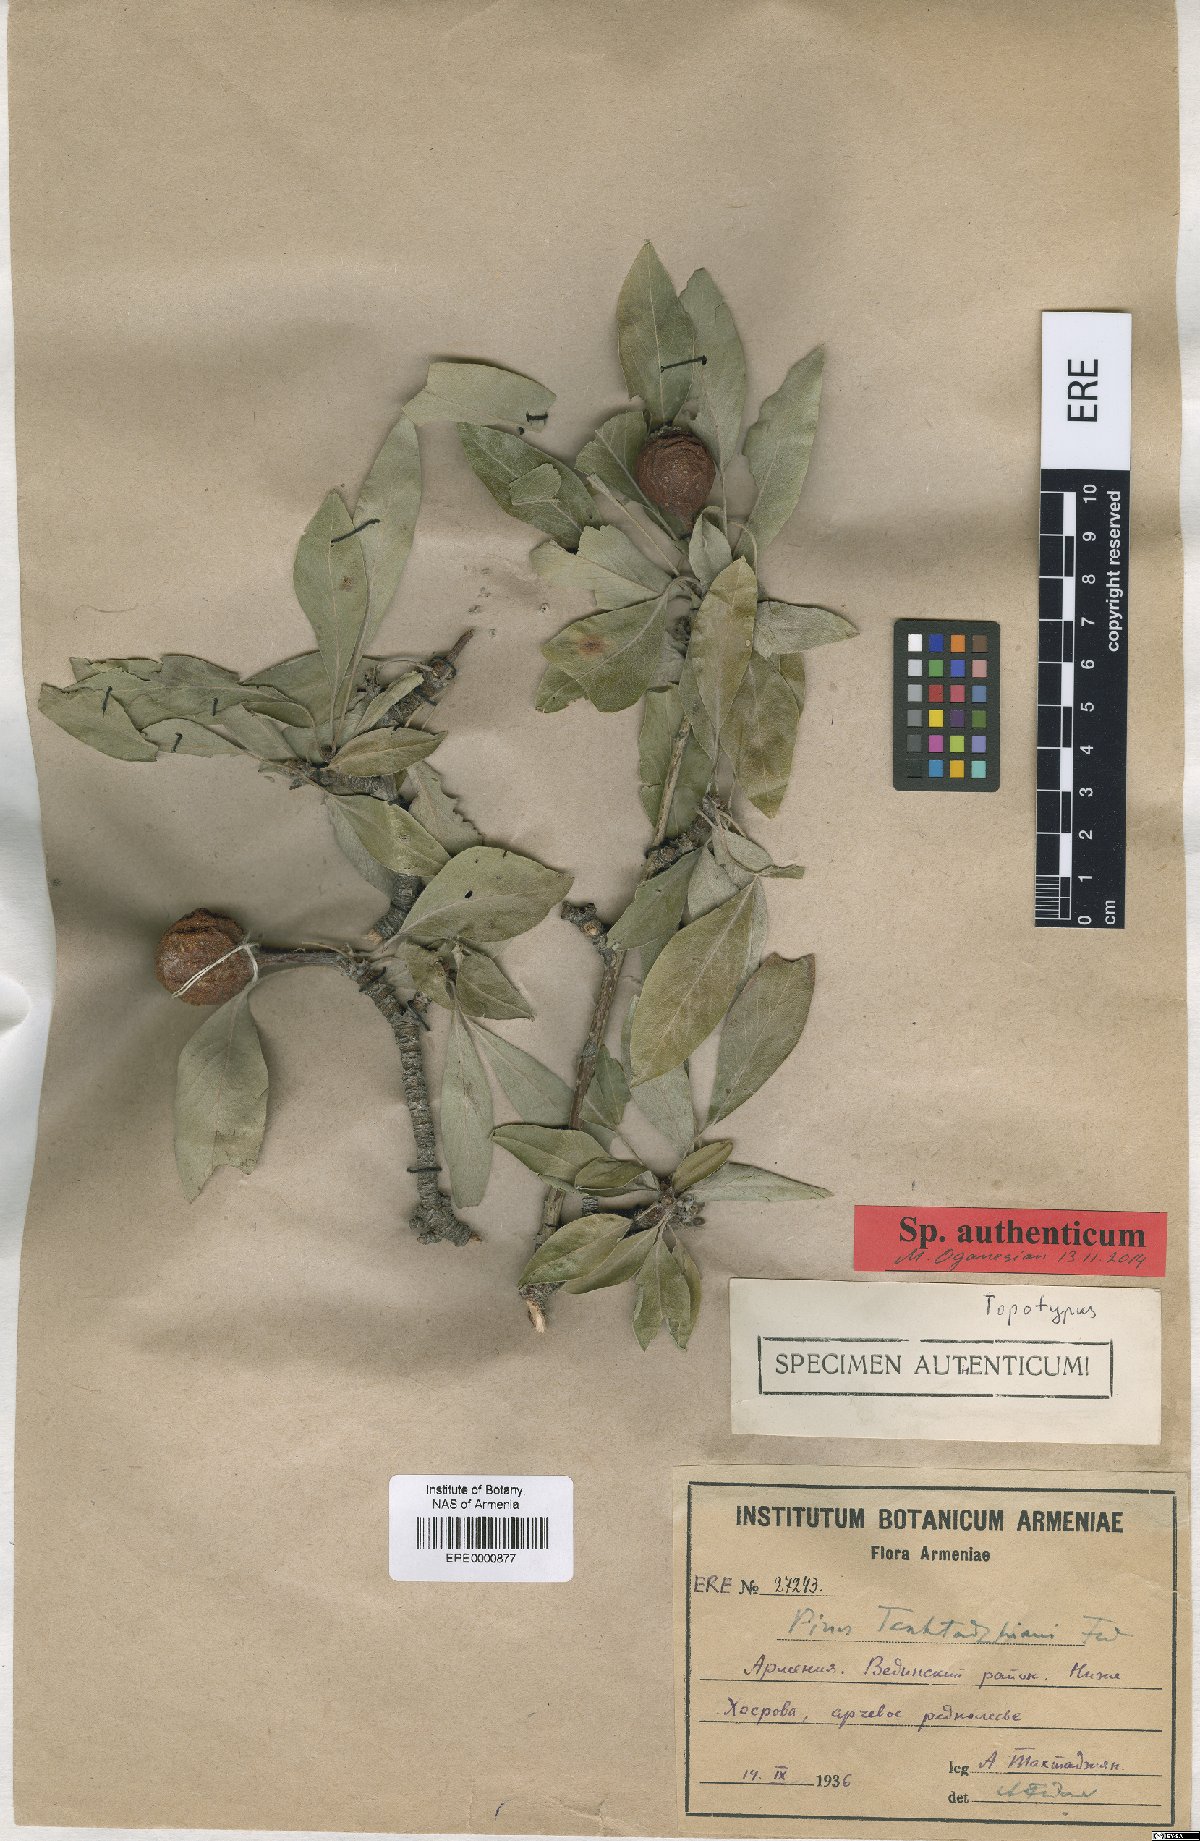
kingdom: Plantae
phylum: Tracheophyta
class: Magnoliopsida
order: Rosales
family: Rosaceae
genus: Pyrus
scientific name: Pyrus takhtadzhianii
